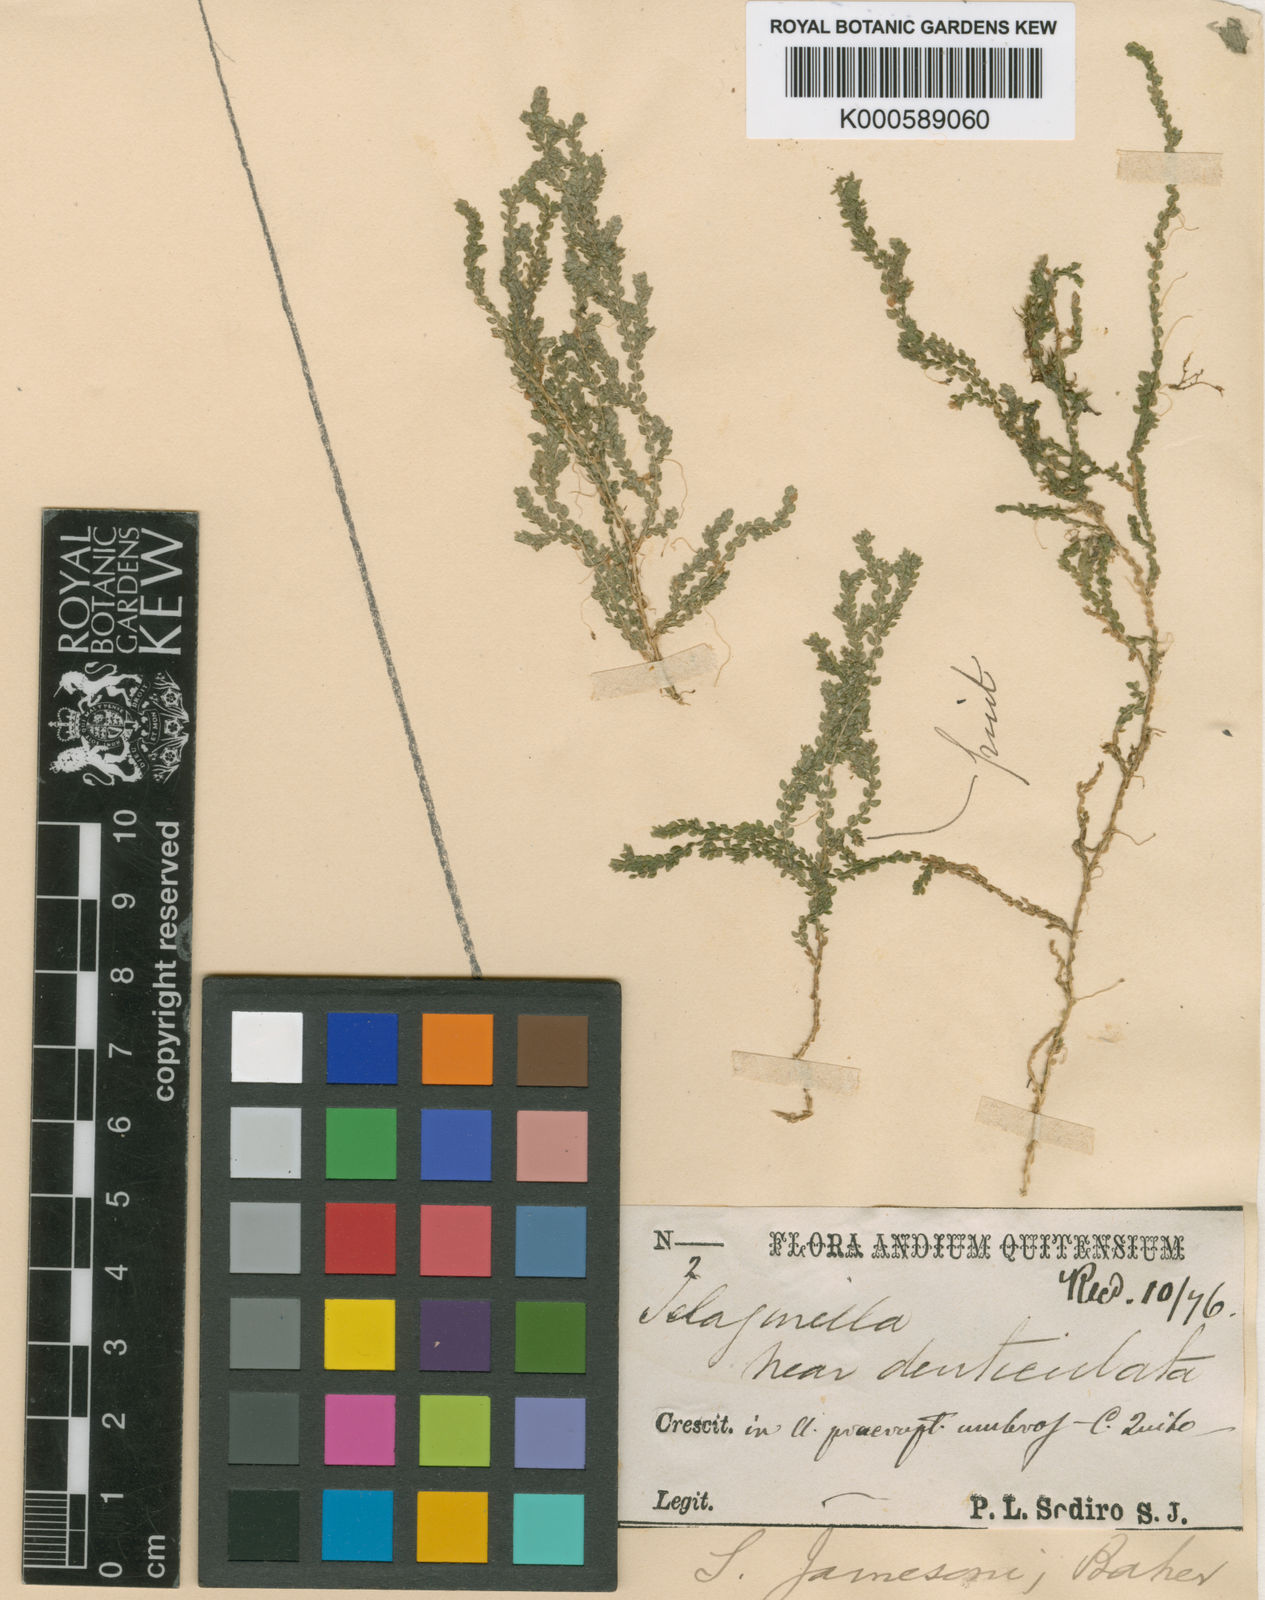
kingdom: Plantae
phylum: Tracheophyta
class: Lycopodiopsida
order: Selaginellales
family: Selaginellaceae
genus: Selaginella
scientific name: Selaginella microphylla
